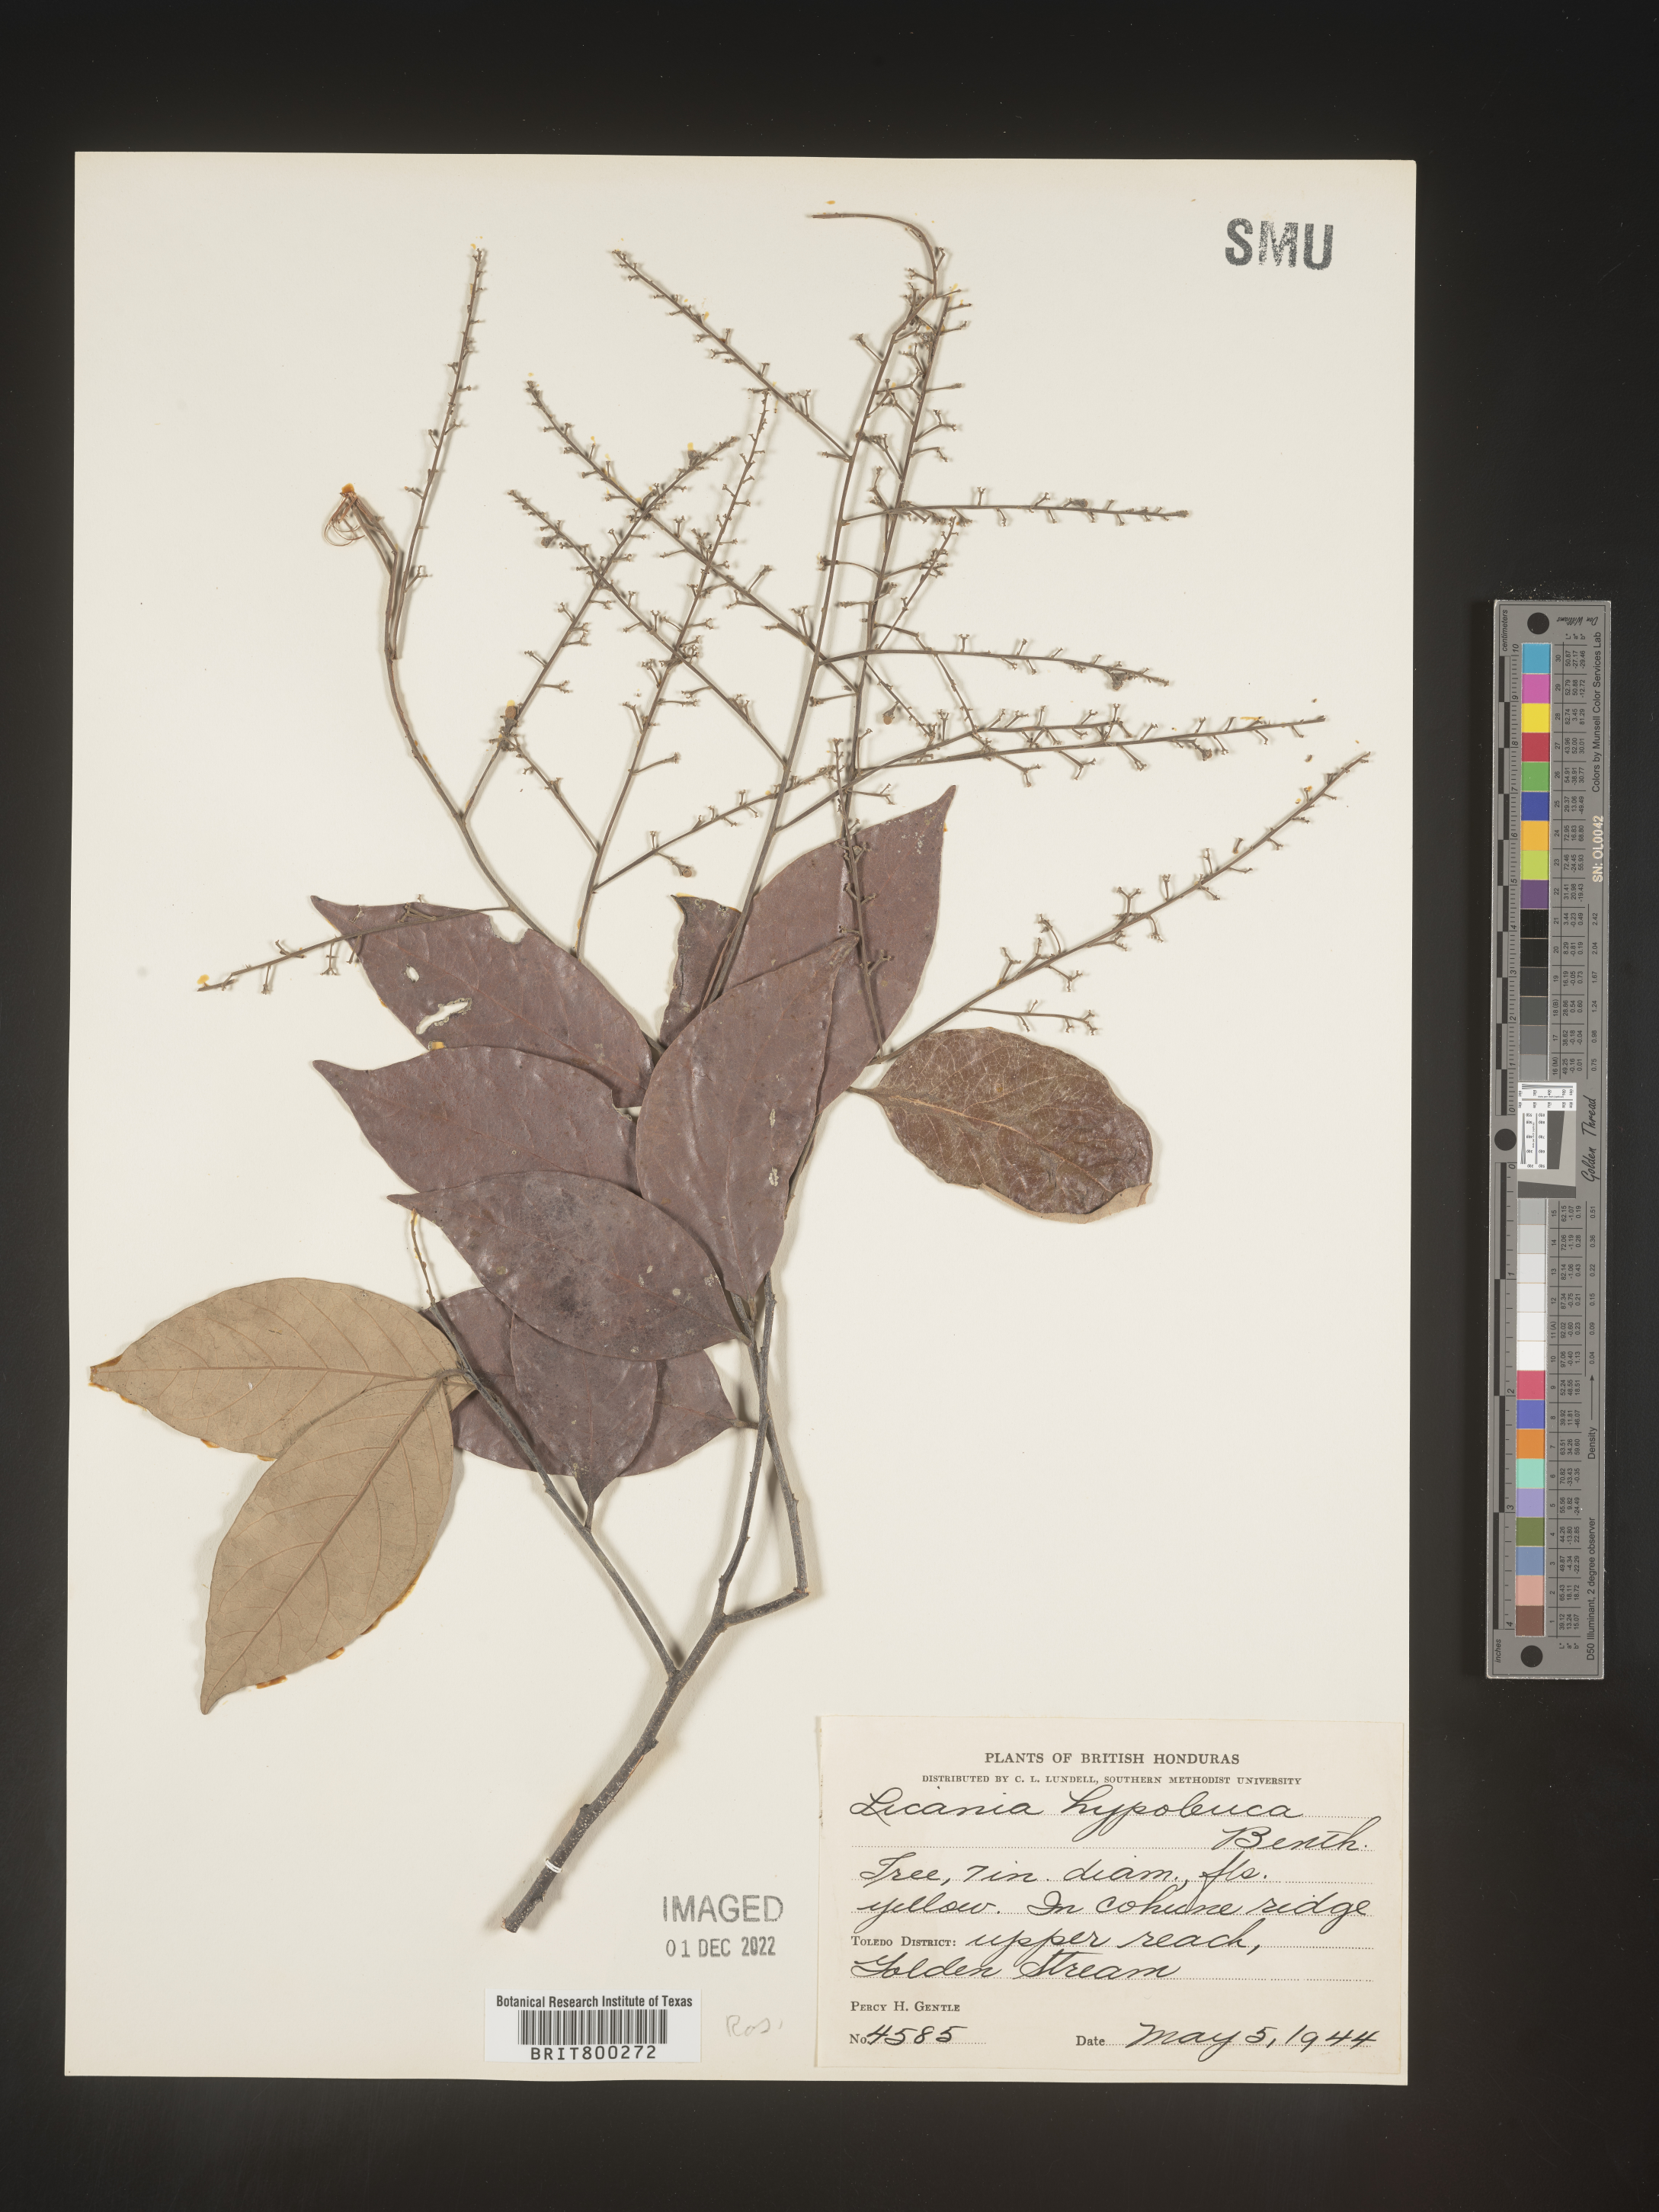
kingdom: Plantae
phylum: Tracheophyta
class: Magnoliopsida
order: Malpighiales
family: Chrysobalanaceae
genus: Geobalanus
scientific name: Geobalanus oblongifolius
